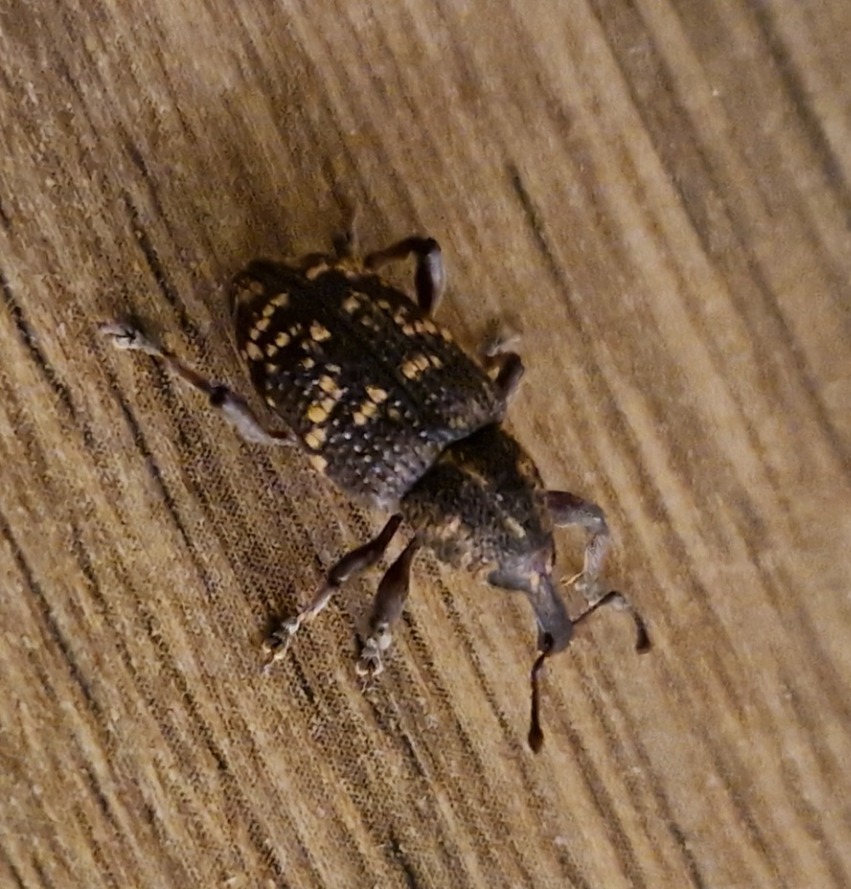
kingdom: Animalia
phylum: Arthropoda
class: Insecta
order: Coleoptera
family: Curculionidae
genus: Hylobius
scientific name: Hylobius abietis
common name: Stor nåletræsnudebille
